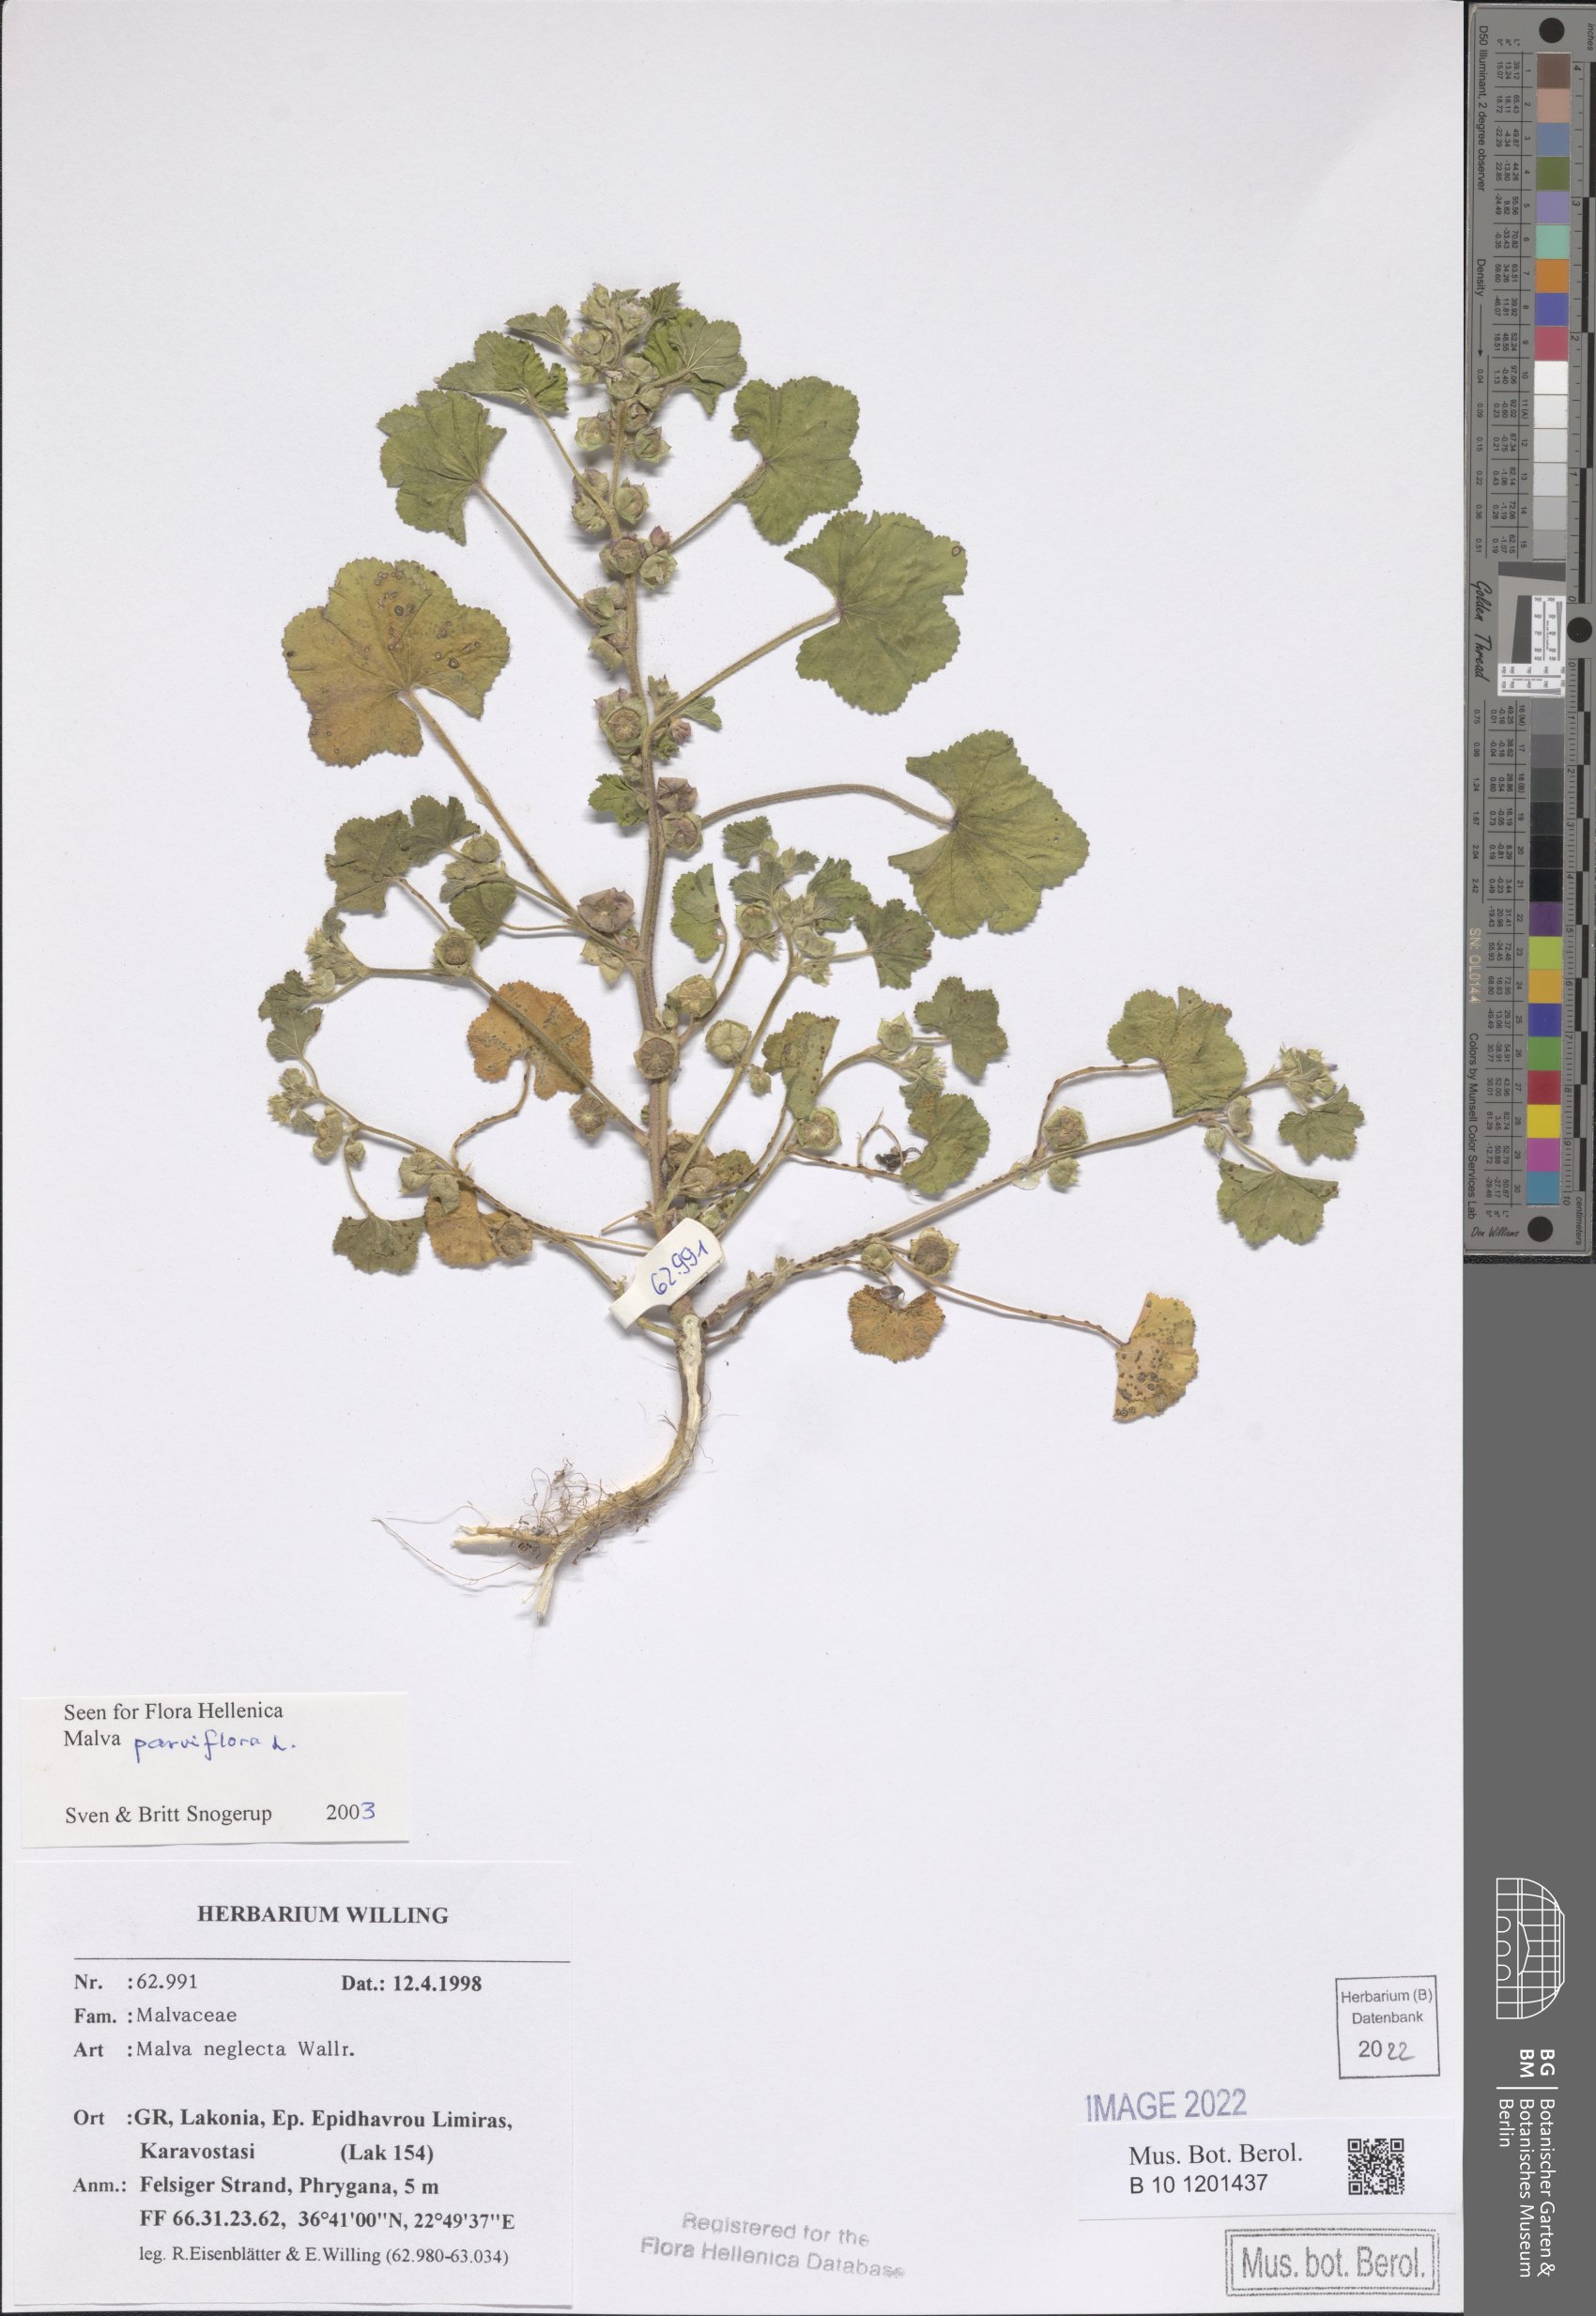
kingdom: Plantae
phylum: Tracheophyta
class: Magnoliopsida
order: Malvales
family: Malvaceae
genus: Malva
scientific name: Malva parviflora
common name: Least mallow
